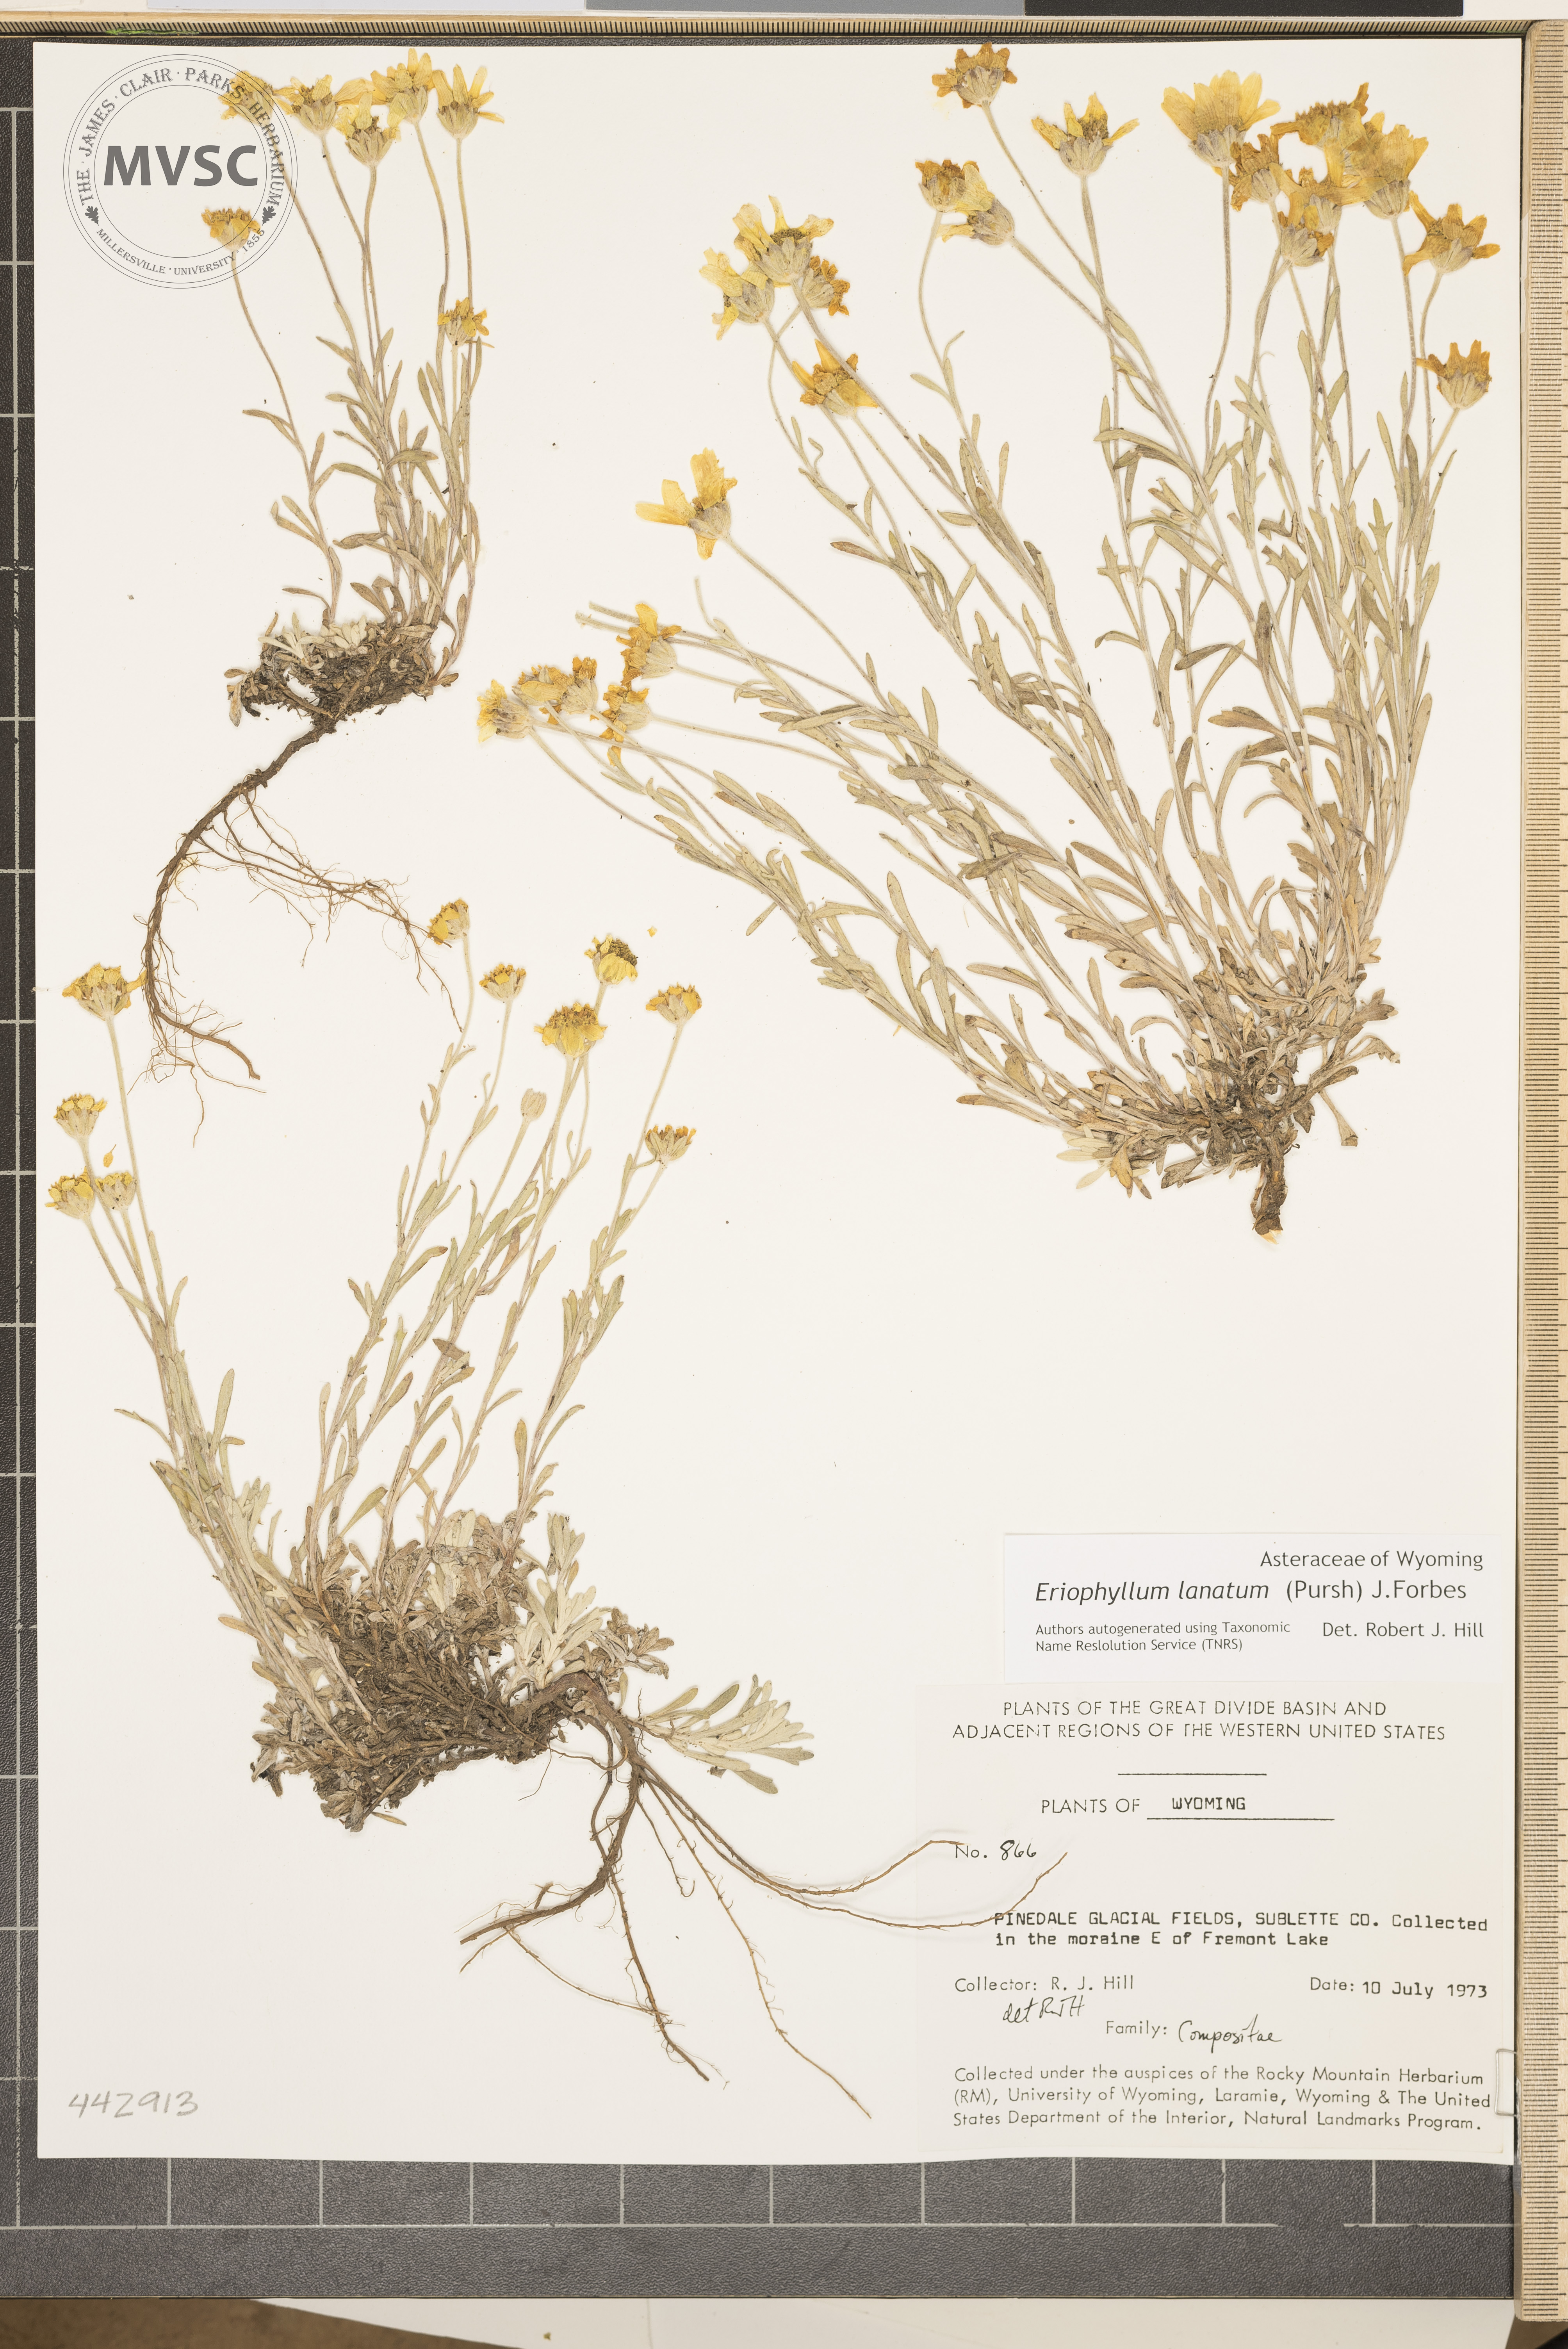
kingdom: Plantae
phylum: Tracheophyta
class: Magnoliopsida
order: Asterales
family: Asteraceae
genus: Eriophyllum
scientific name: Eriophyllum lanatum
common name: Common woolly-sunflower
